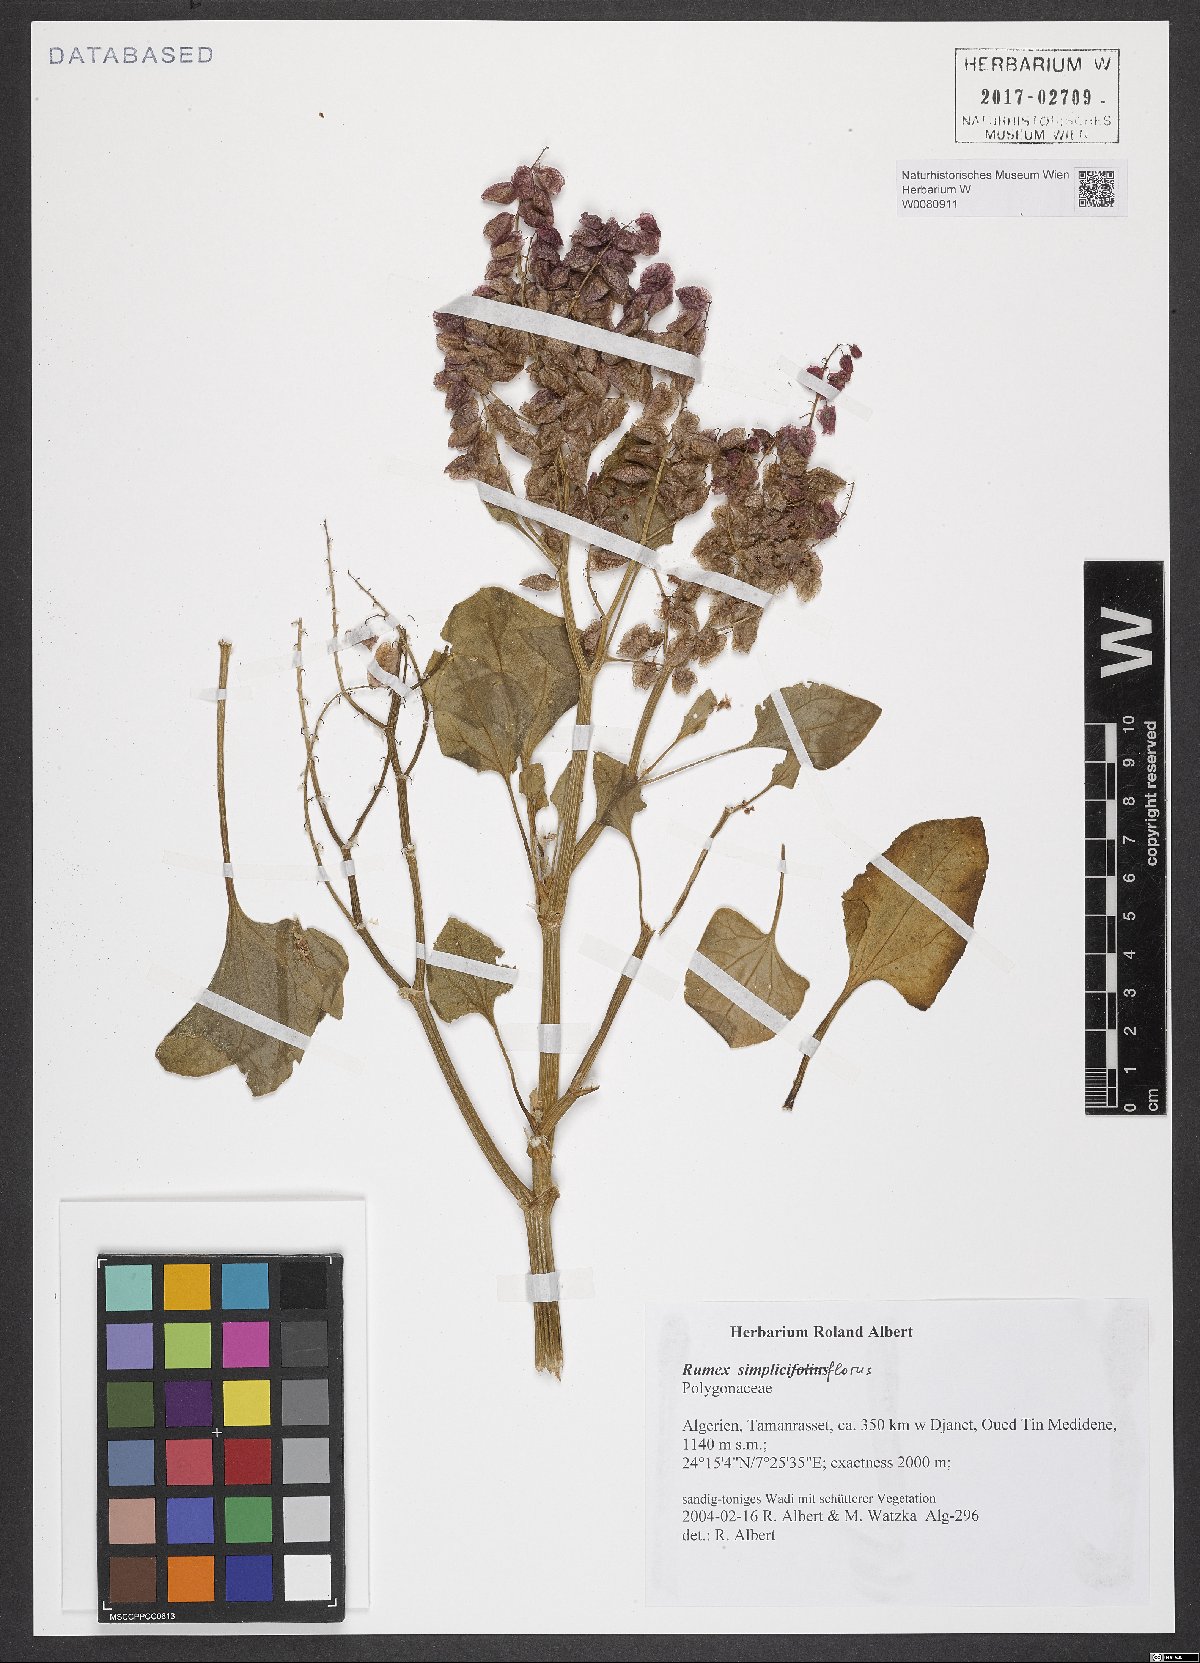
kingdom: Plantae
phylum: Tracheophyta
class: Magnoliopsida
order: Caryophyllales
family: Polygonaceae
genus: Rumex
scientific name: Rumex simpliciflorus
